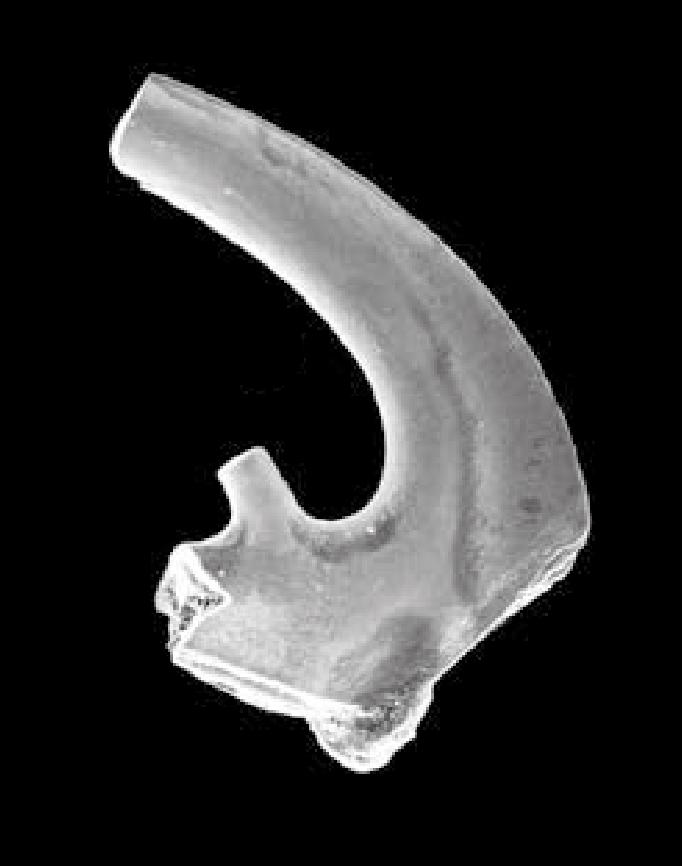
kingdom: Animalia
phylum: Chordata
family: Cordylodontidae
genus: Cordylodus
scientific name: Cordylodus angulatus
